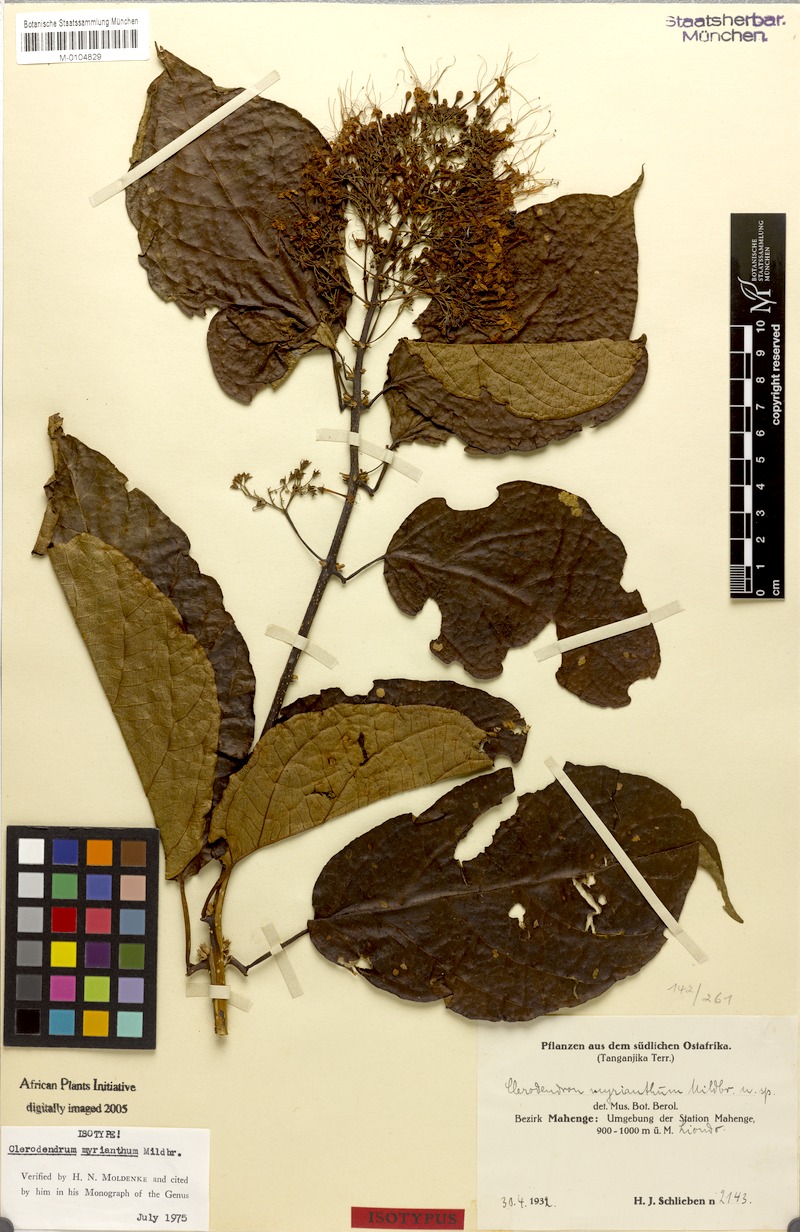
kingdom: Plantae
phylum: Tracheophyta
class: Magnoliopsida
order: Lamiales
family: Lamiaceae
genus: Clerodendrum
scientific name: Clerodendrum myrianthum
